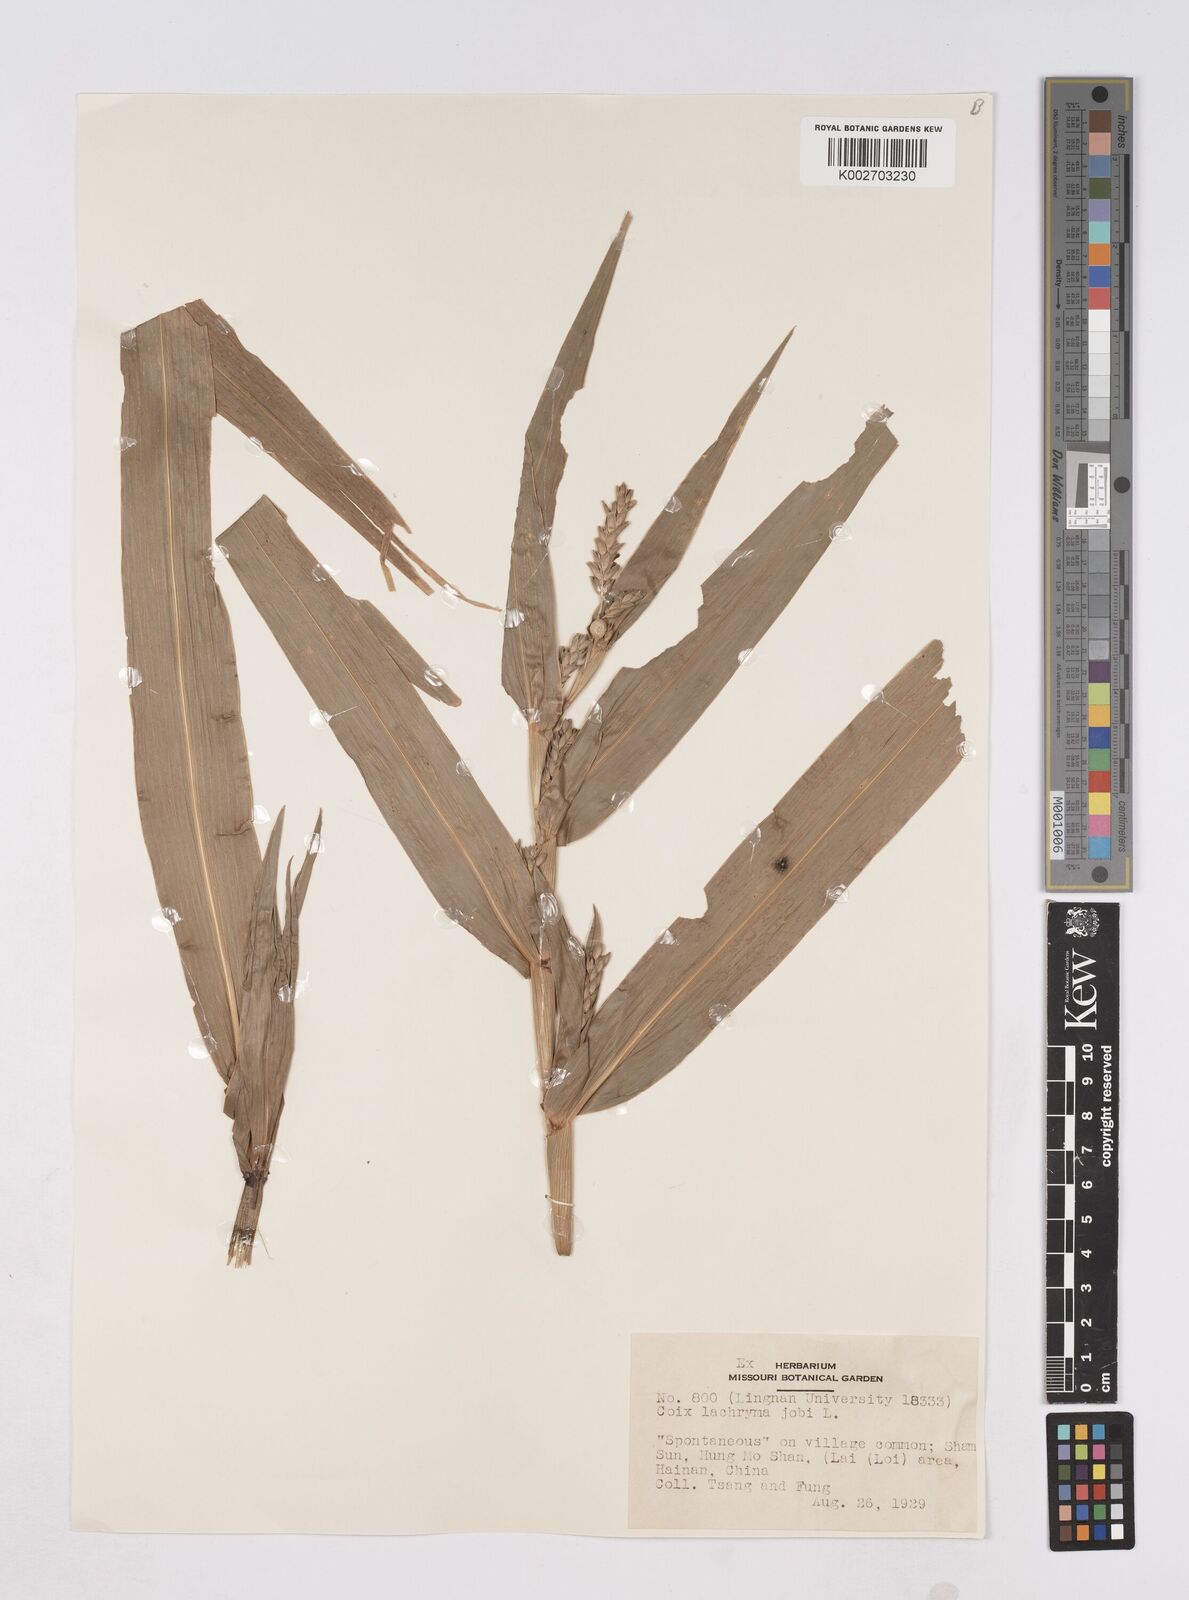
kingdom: Plantae
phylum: Tracheophyta
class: Liliopsida
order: Poales
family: Poaceae
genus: Coix
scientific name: Coix lacryma-jobi
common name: Job's tears
